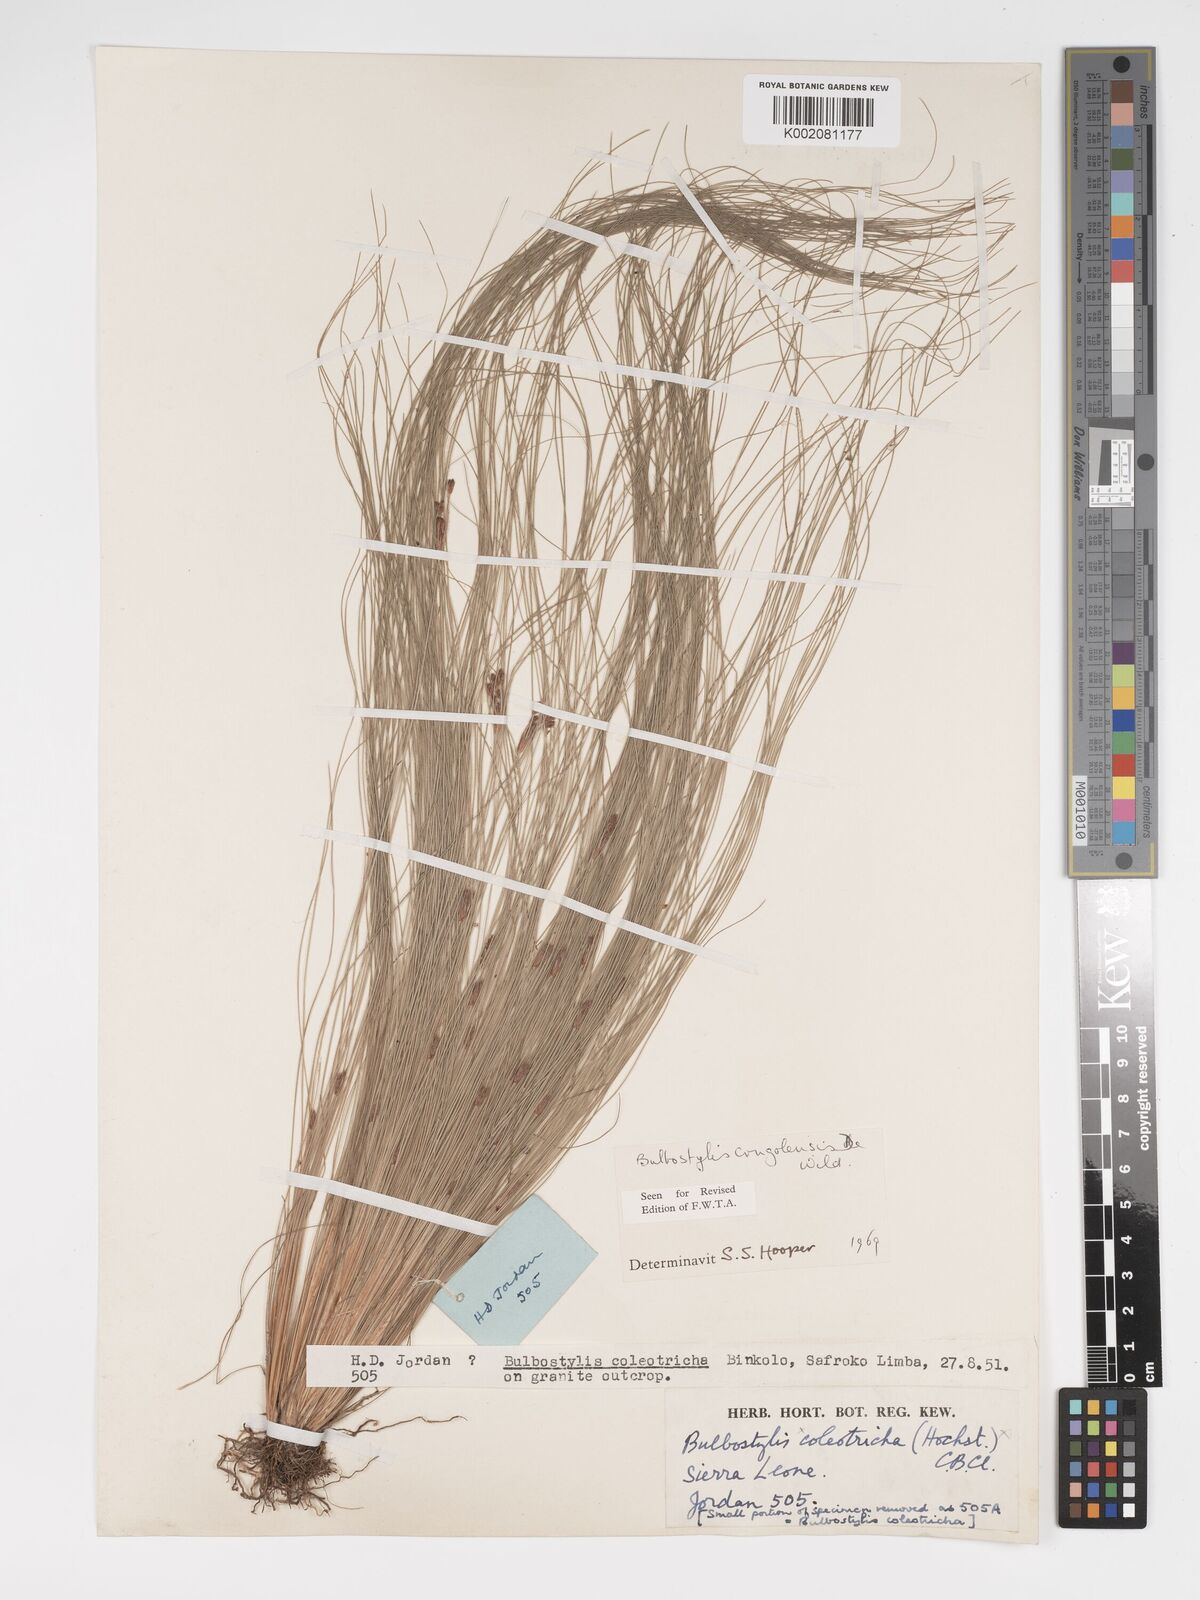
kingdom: Plantae
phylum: Tracheophyta
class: Liliopsida
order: Poales
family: Cyperaceae
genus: Bulbostylis
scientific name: Bulbostylis congolensis
